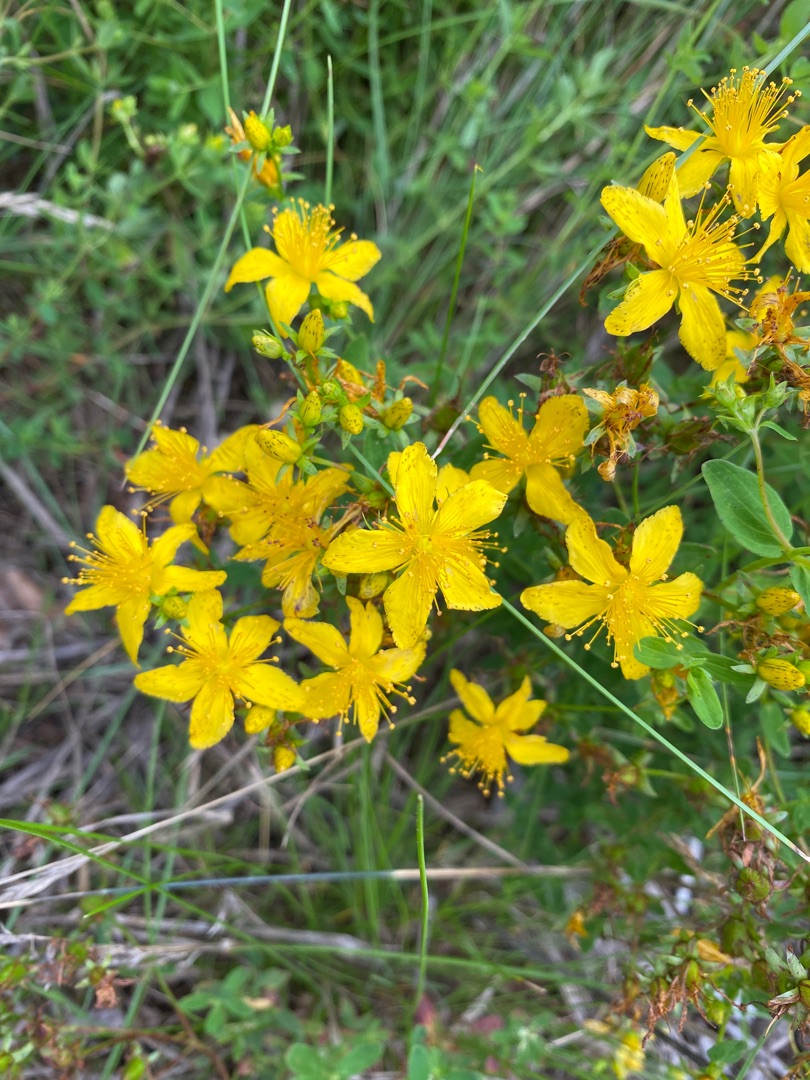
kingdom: Plantae
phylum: Tracheophyta
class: Magnoliopsida
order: Malpighiales
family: Hypericaceae
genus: Hypericum
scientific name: Hypericum perforatum
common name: Prikbladet perikon
